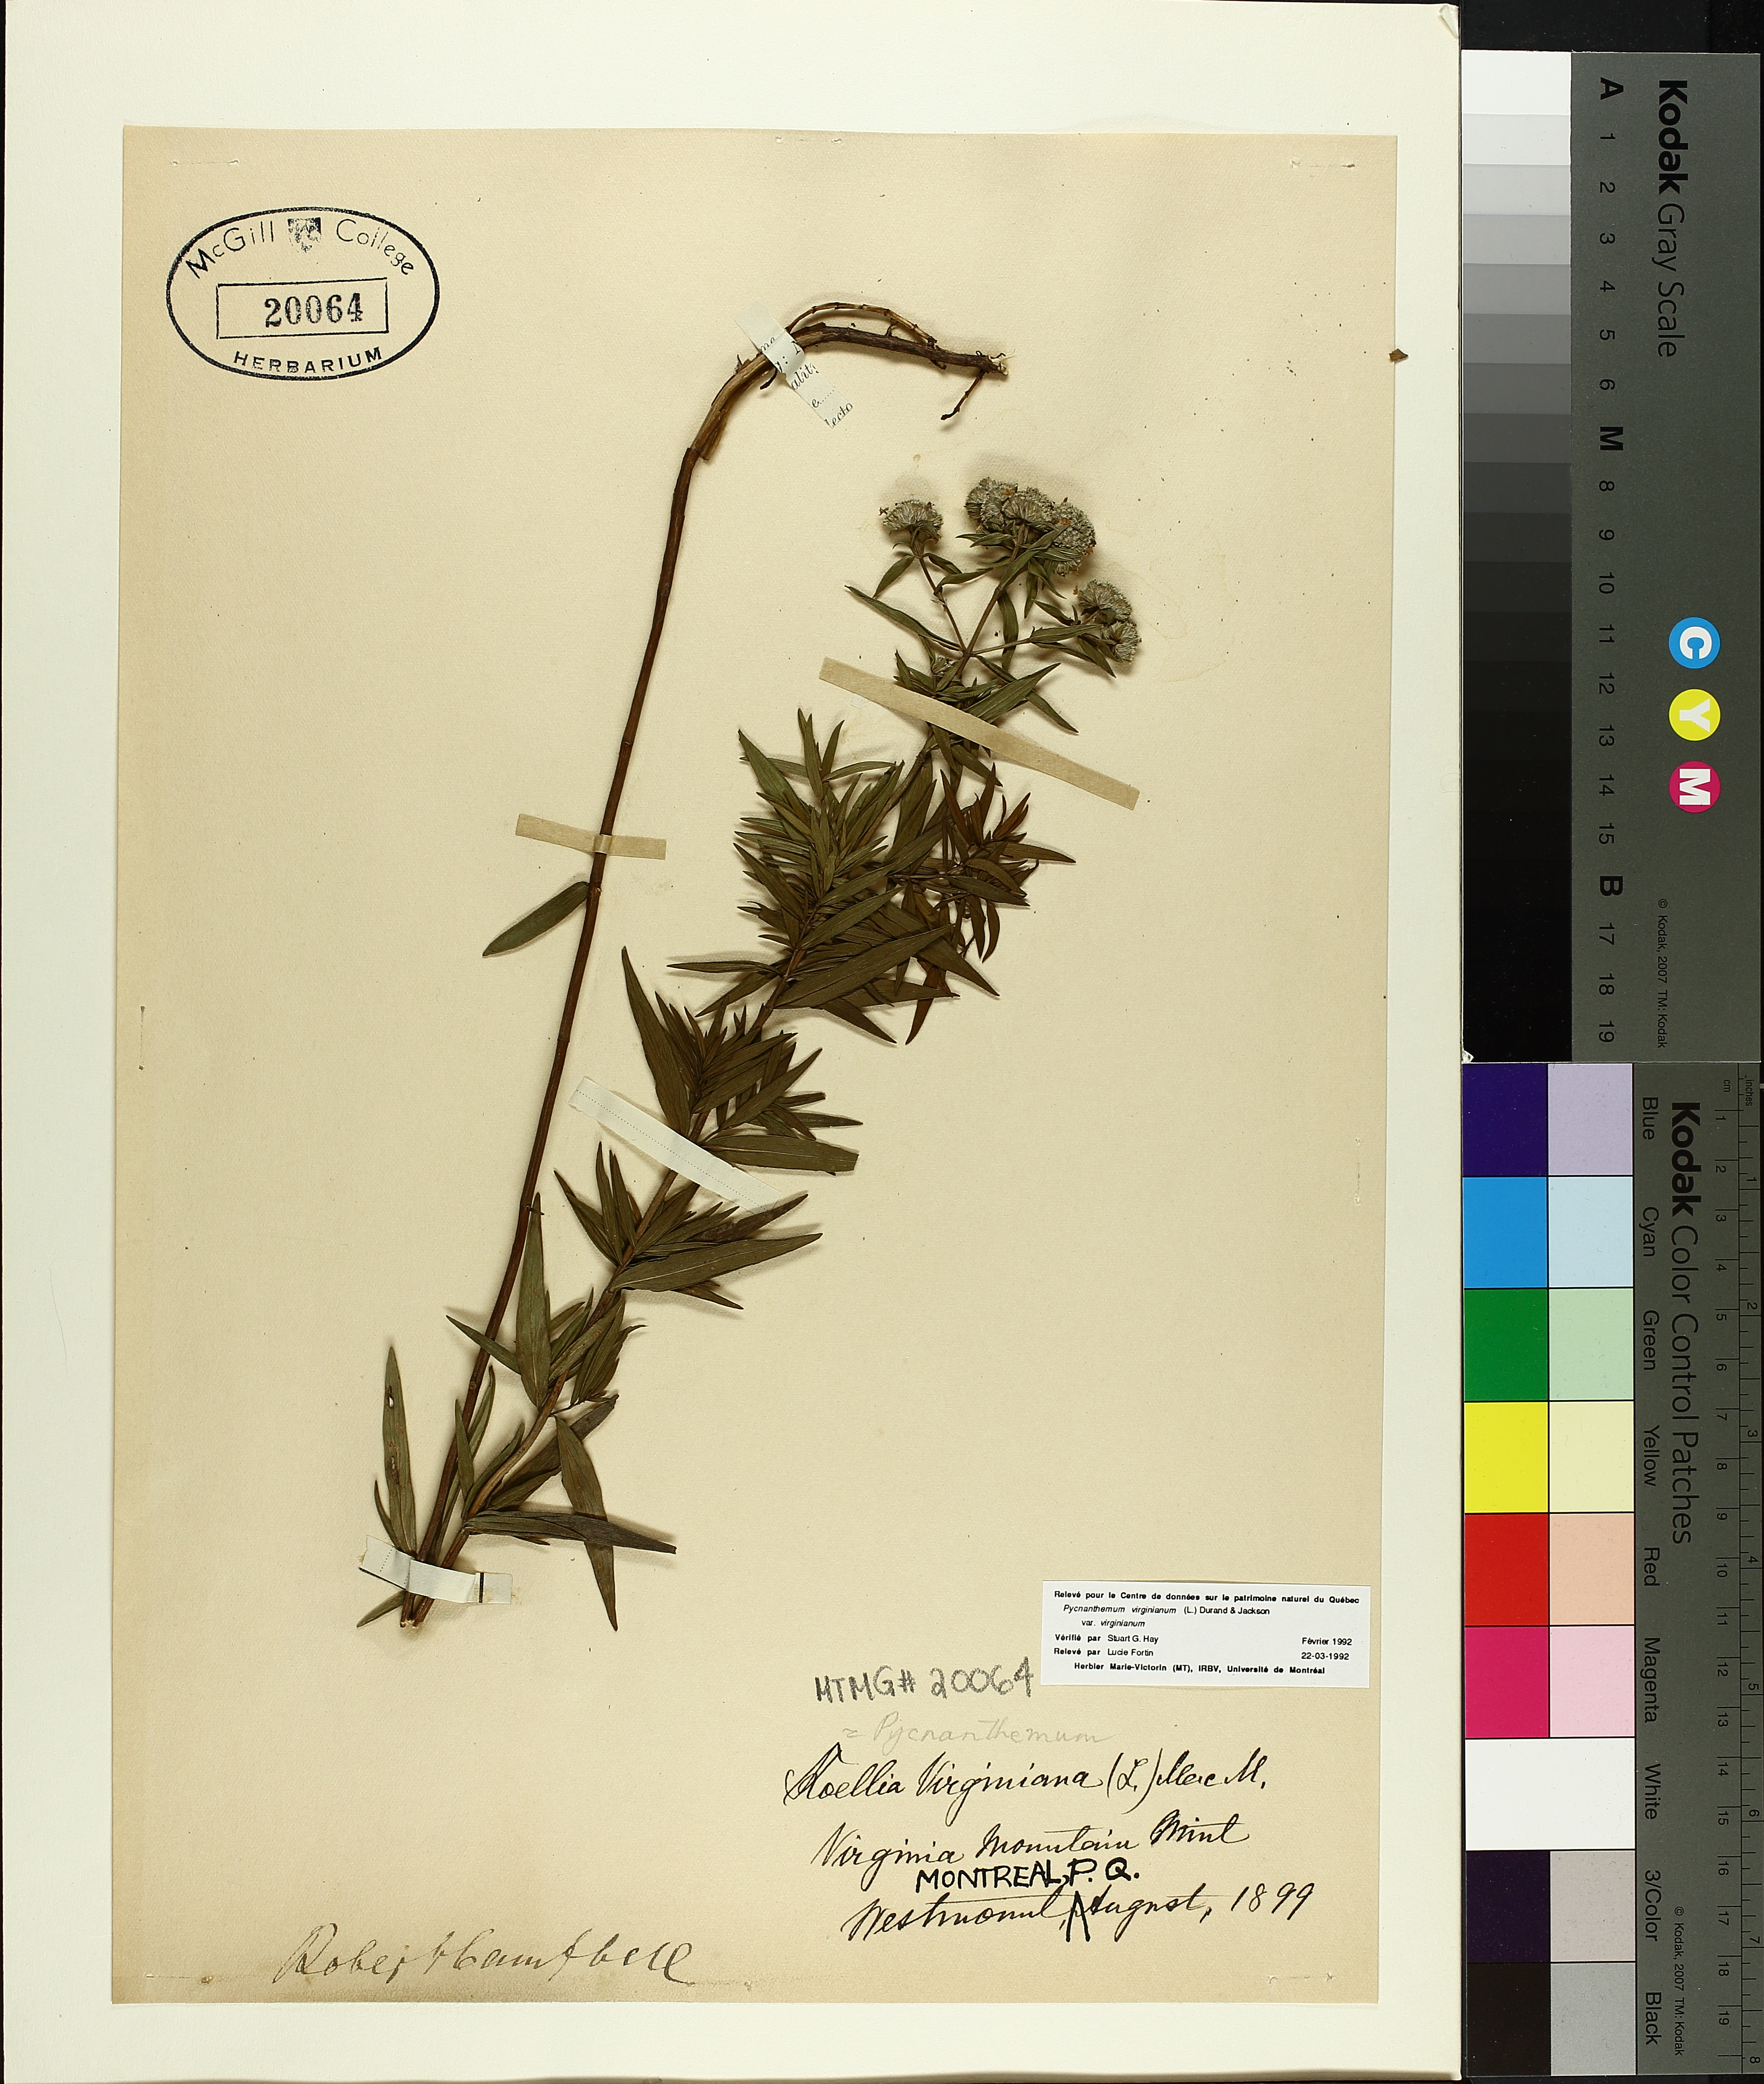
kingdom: Plantae
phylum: Tracheophyta
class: Magnoliopsida
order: Lamiales
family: Lamiaceae
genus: Pycnanthemum
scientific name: Pycnanthemum virginianum
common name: Virginia mountain-mint
